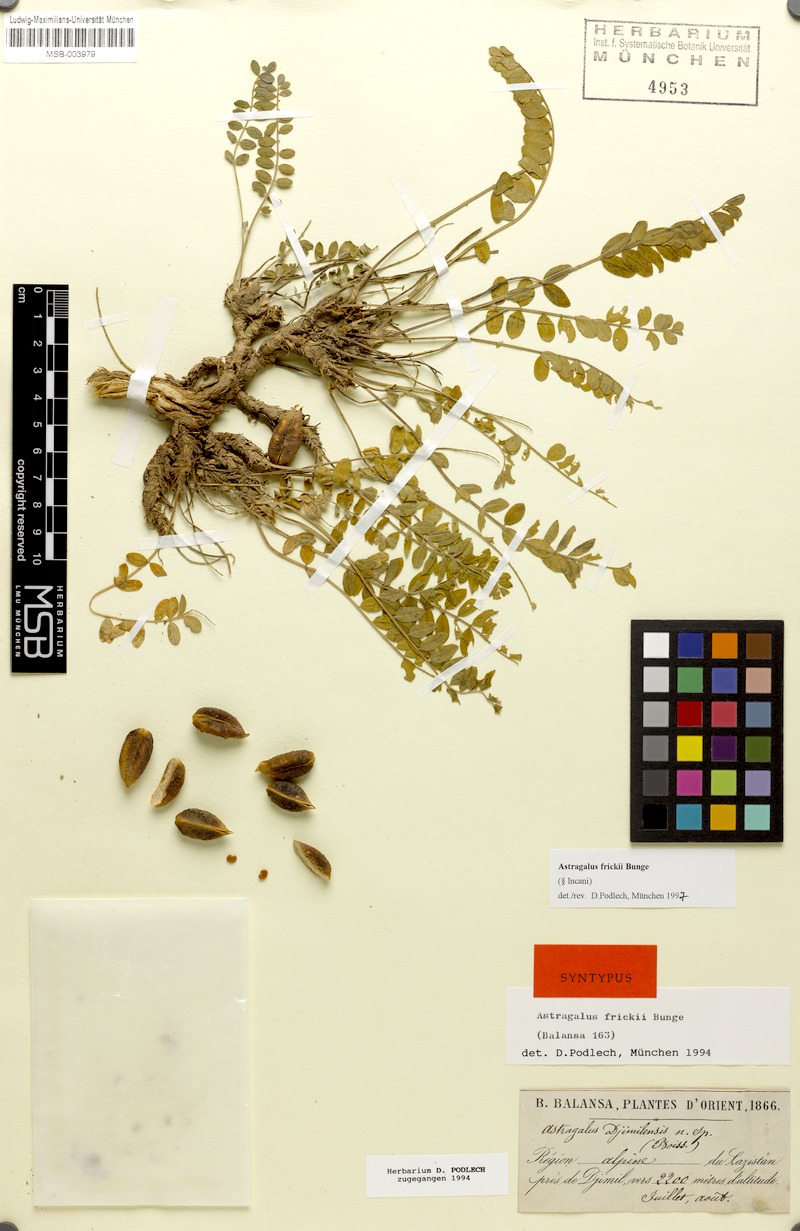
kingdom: Plantae
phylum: Tracheophyta
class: Magnoliopsida
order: Fabales
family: Fabaceae
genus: Astragalus
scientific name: Astragalus frickii
